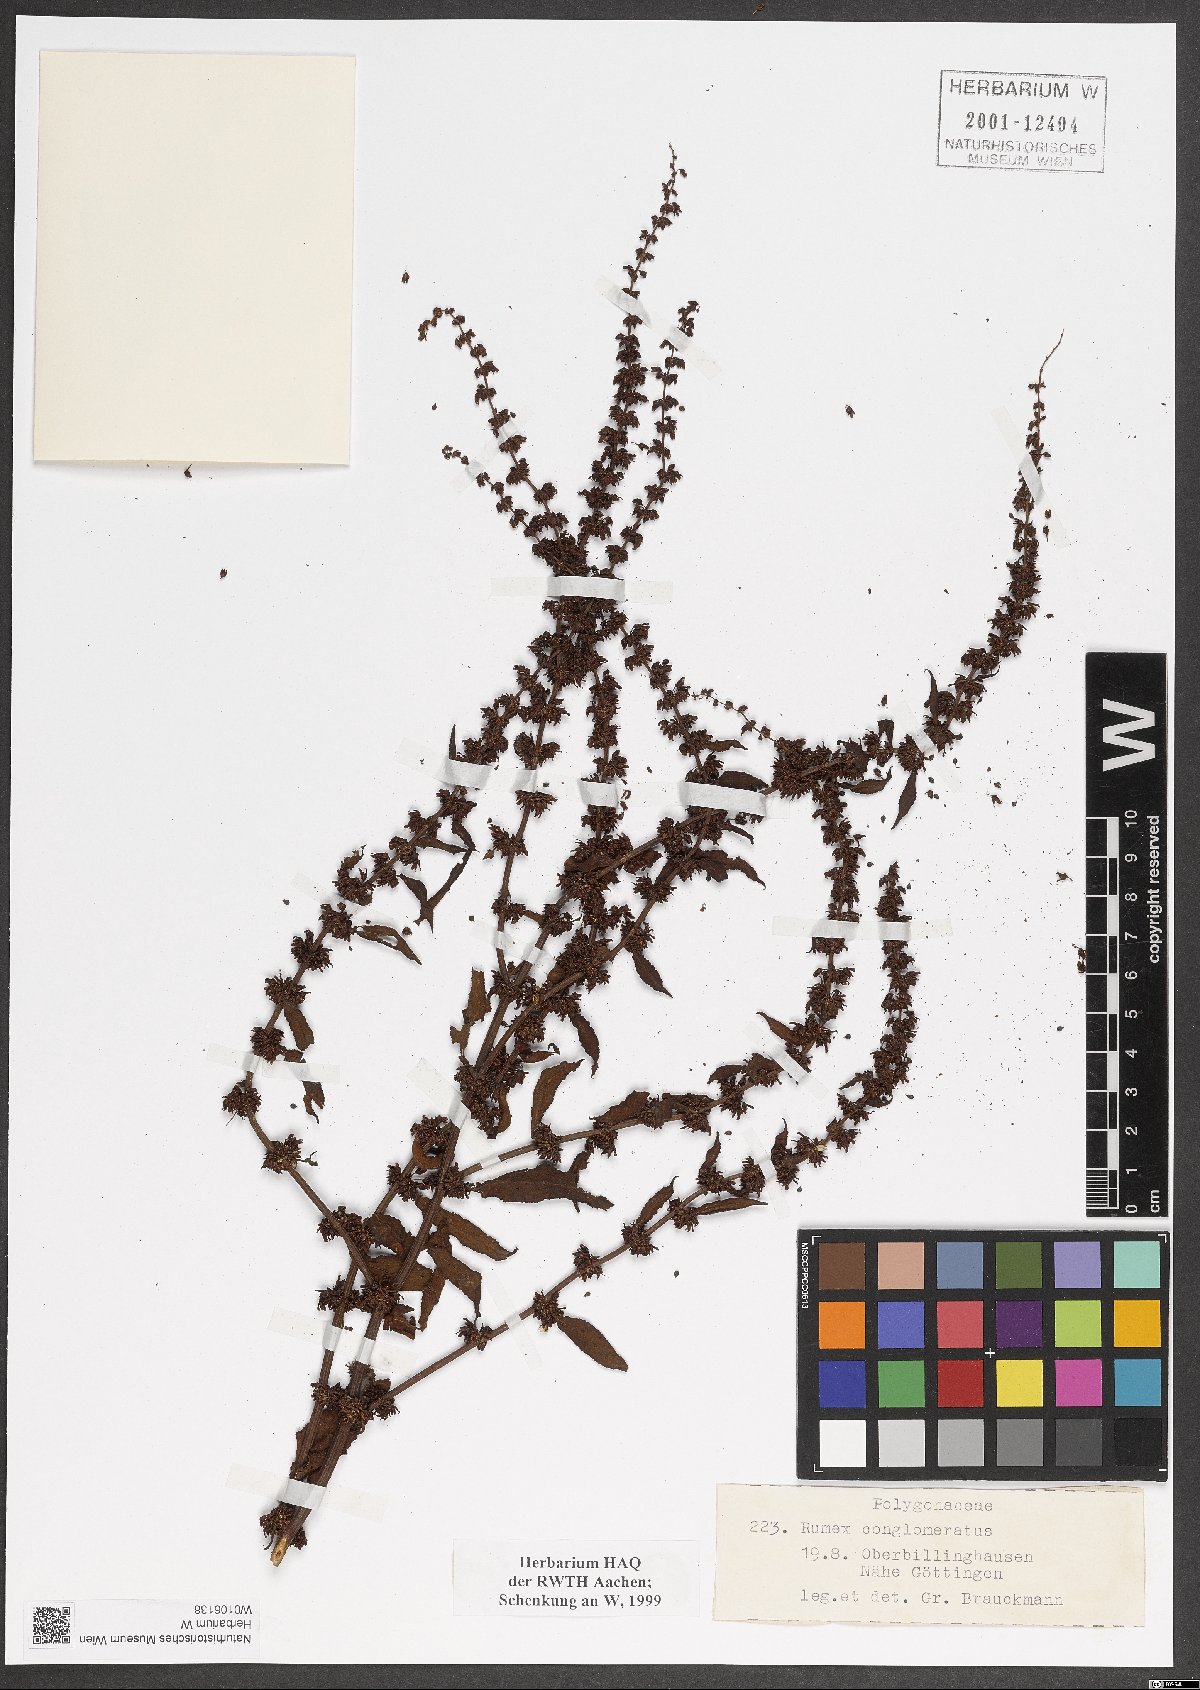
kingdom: Plantae
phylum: Tracheophyta
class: Magnoliopsida
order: Caryophyllales
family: Polygonaceae
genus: Rumex
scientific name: Rumex conglomeratus
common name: Clustered dock
